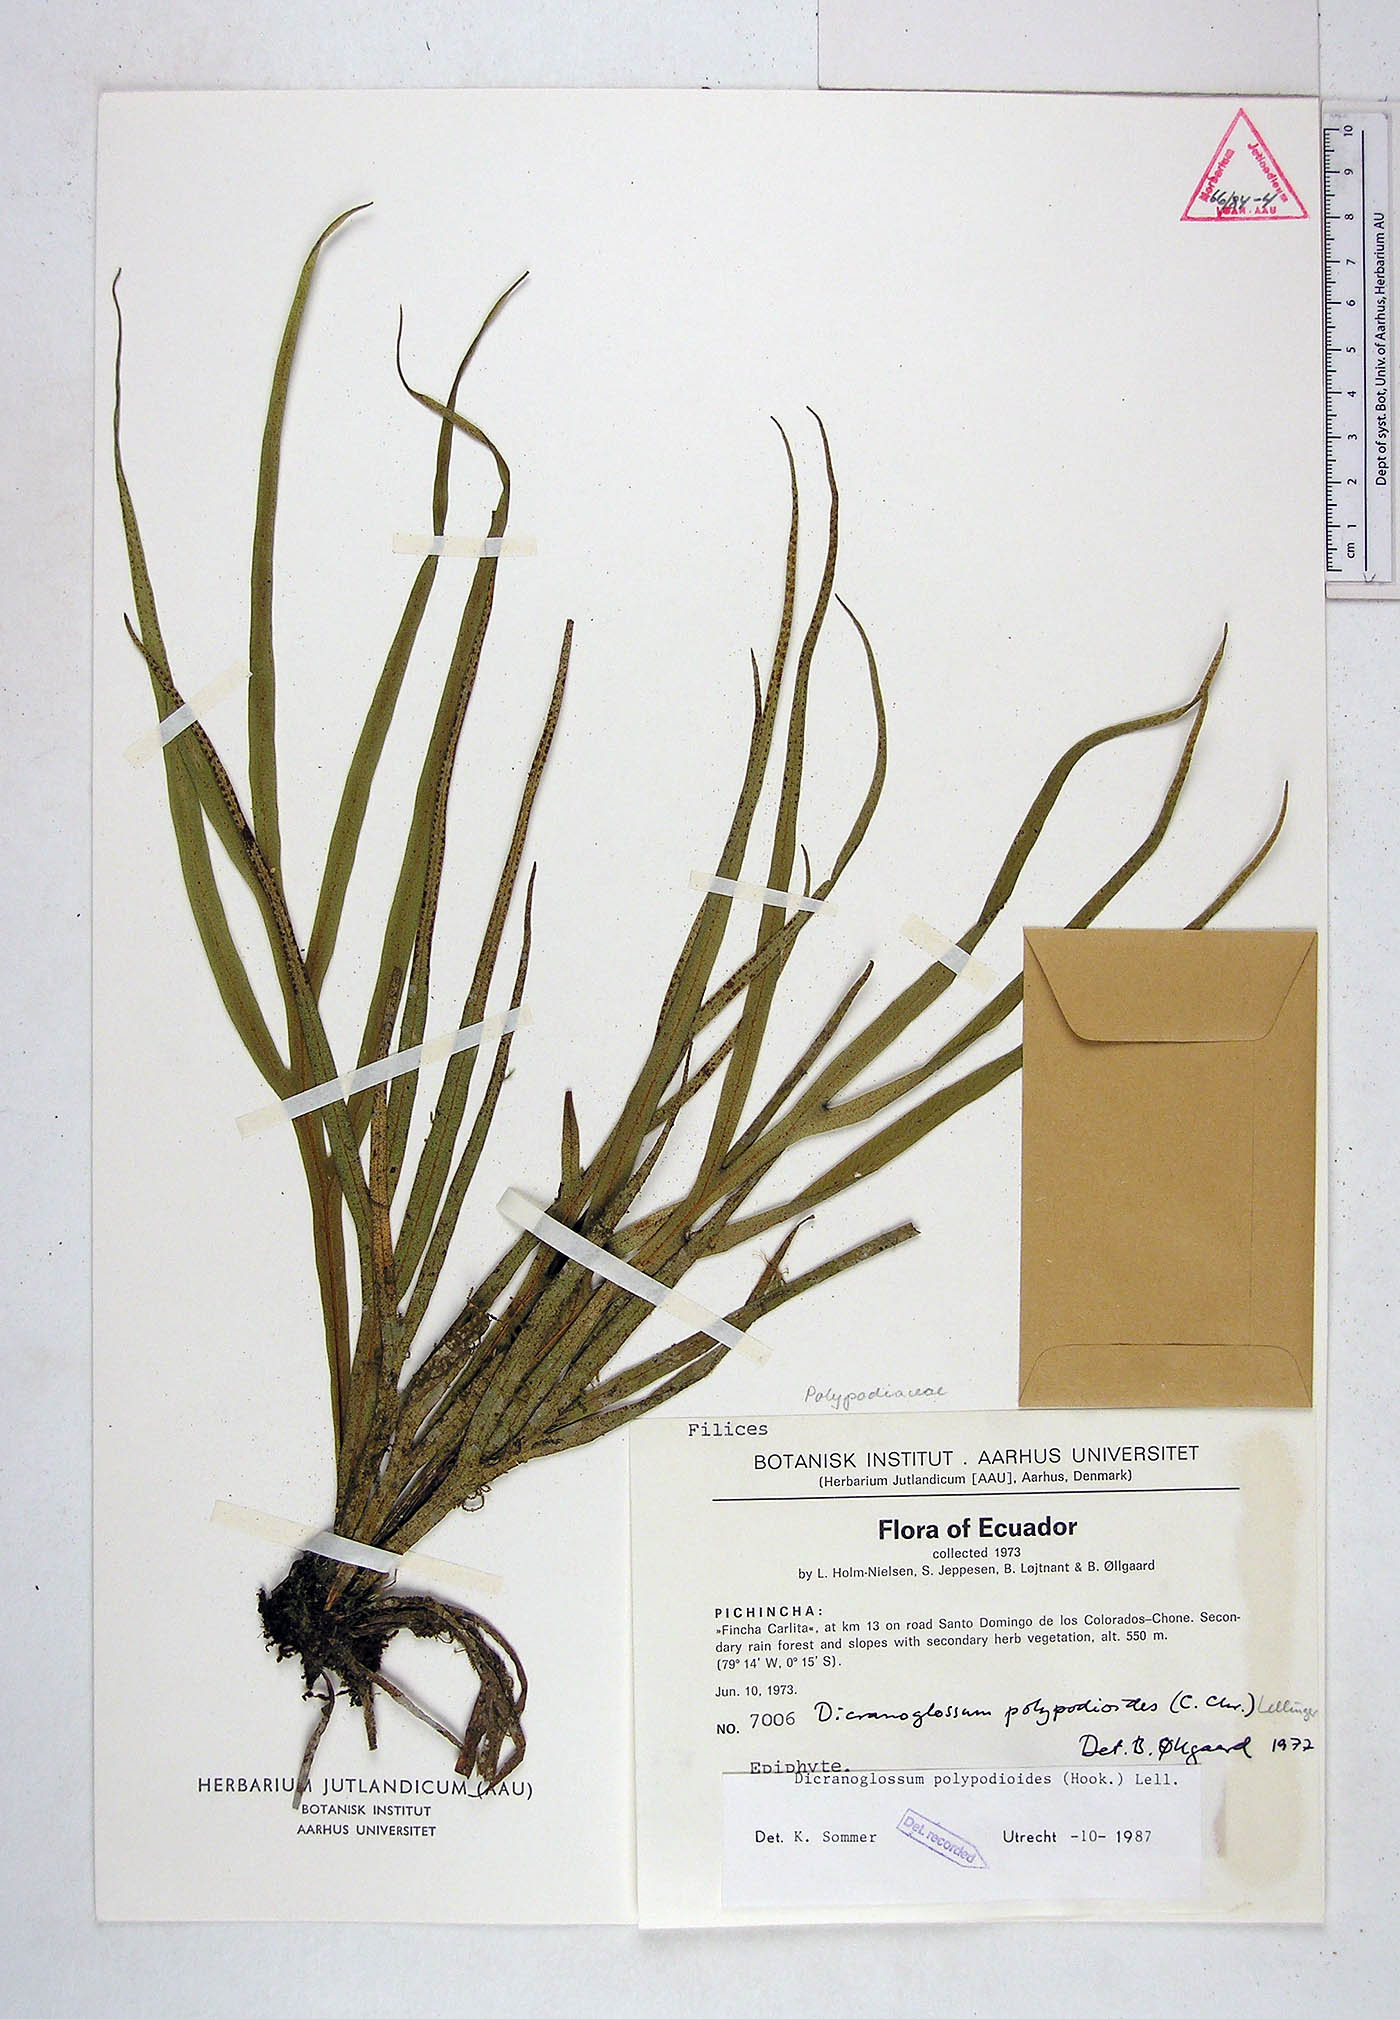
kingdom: Plantae
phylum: Tracheophyta
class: Polypodiopsida
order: Polypodiales
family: Polypodiaceae
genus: Pleopeltis
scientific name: Pleopeltis hookeri
